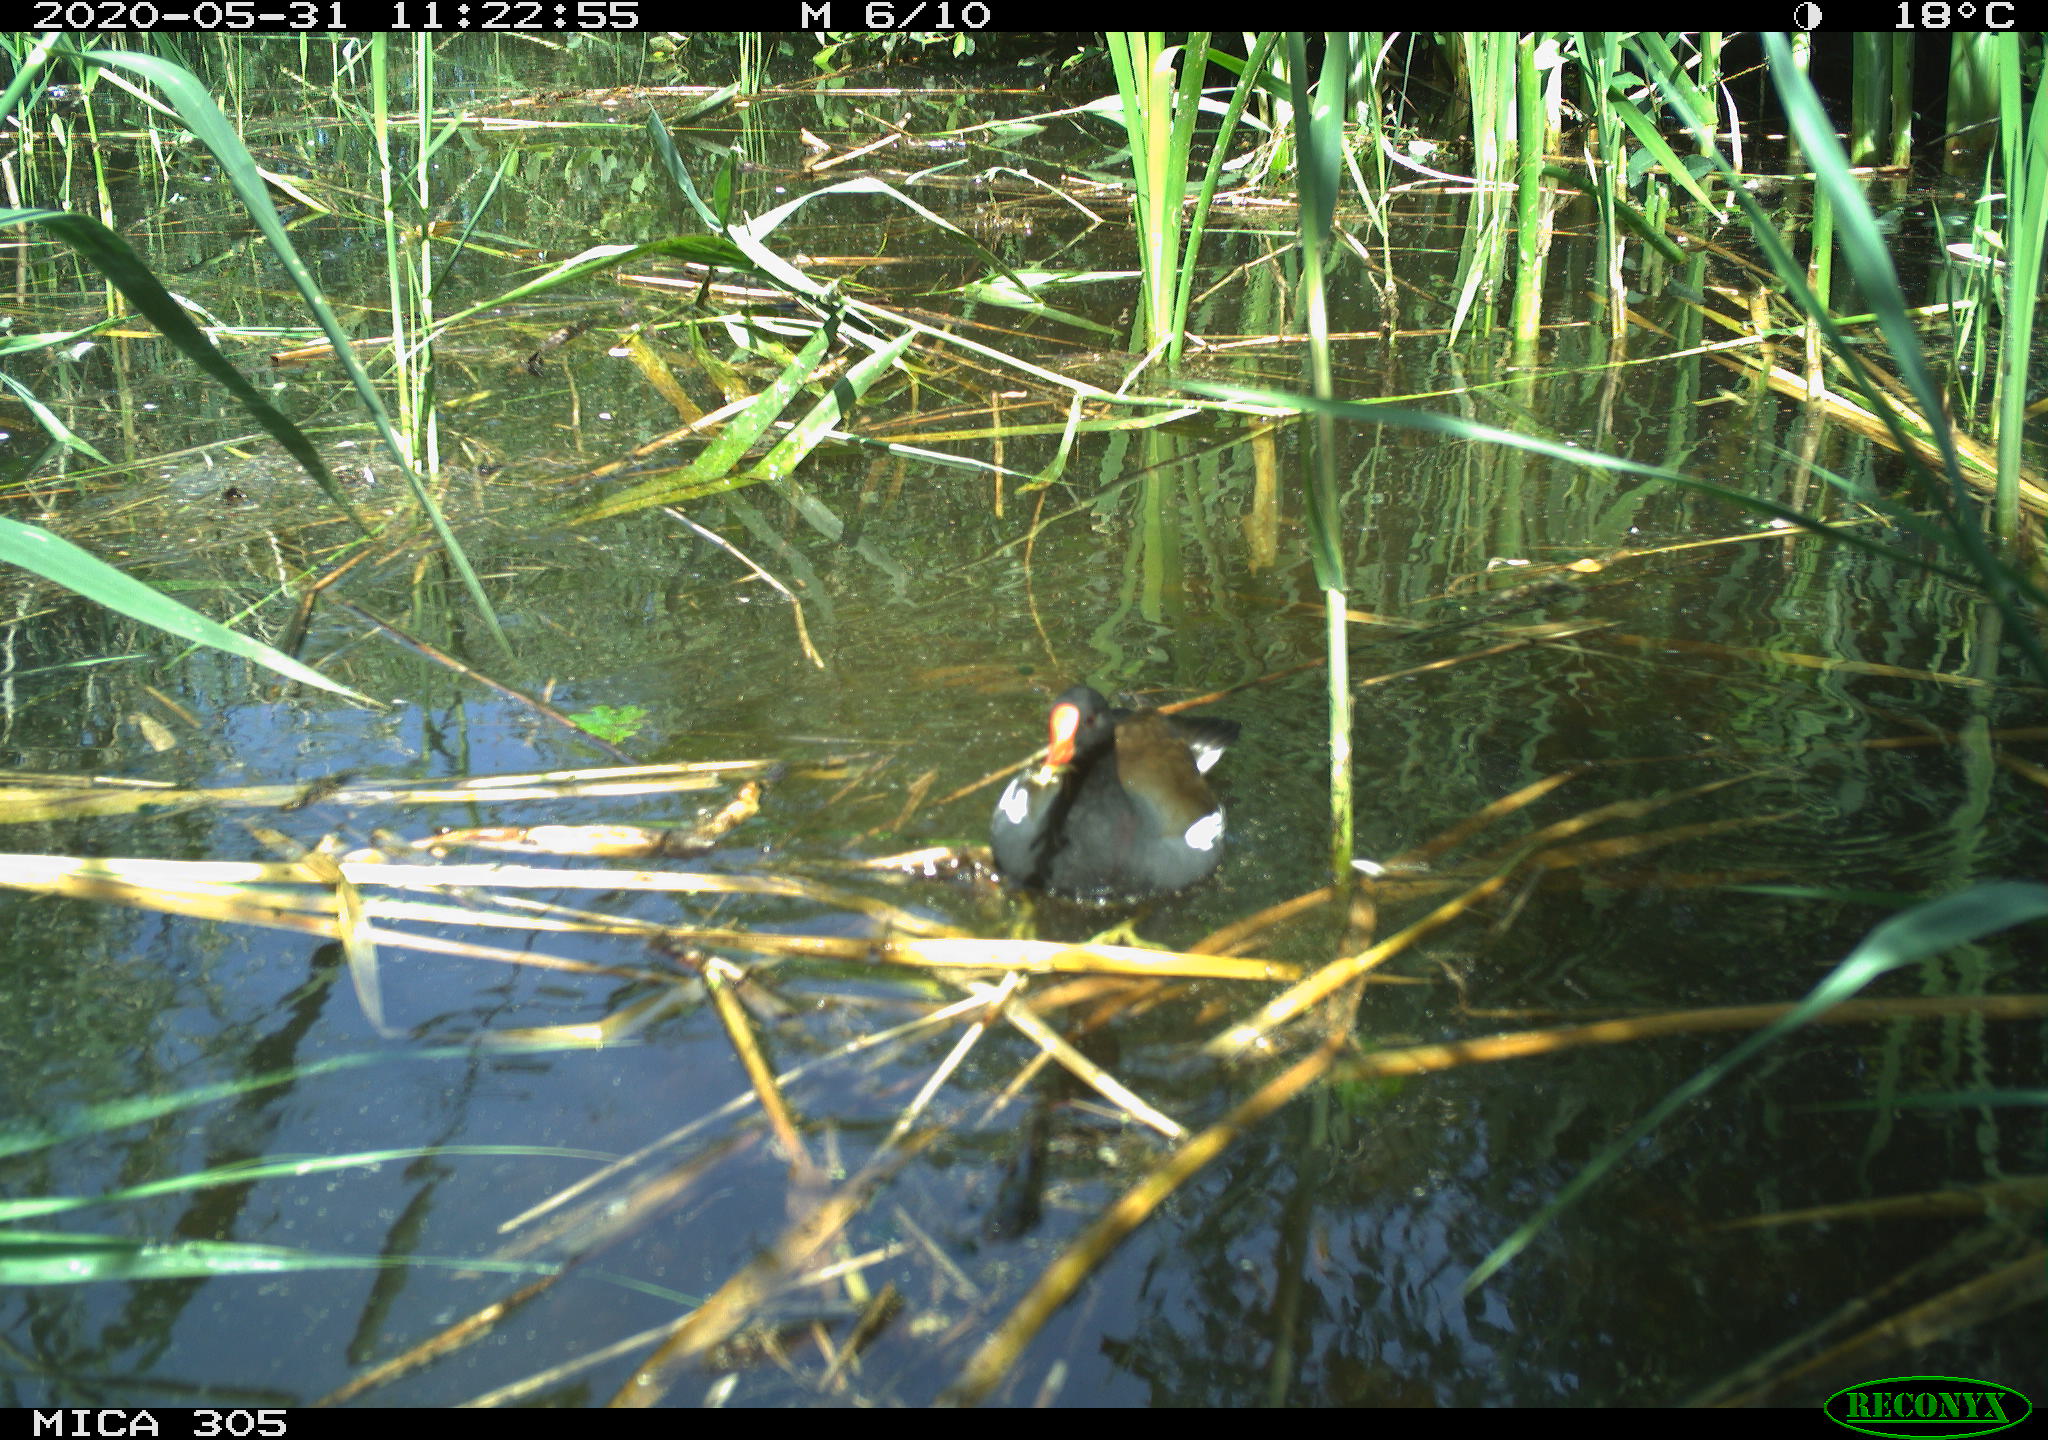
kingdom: Animalia
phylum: Chordata
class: Aves
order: Gruiformes
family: Rallidae
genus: Gallinula
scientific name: Gallinula chloropus
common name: Common moorhen
